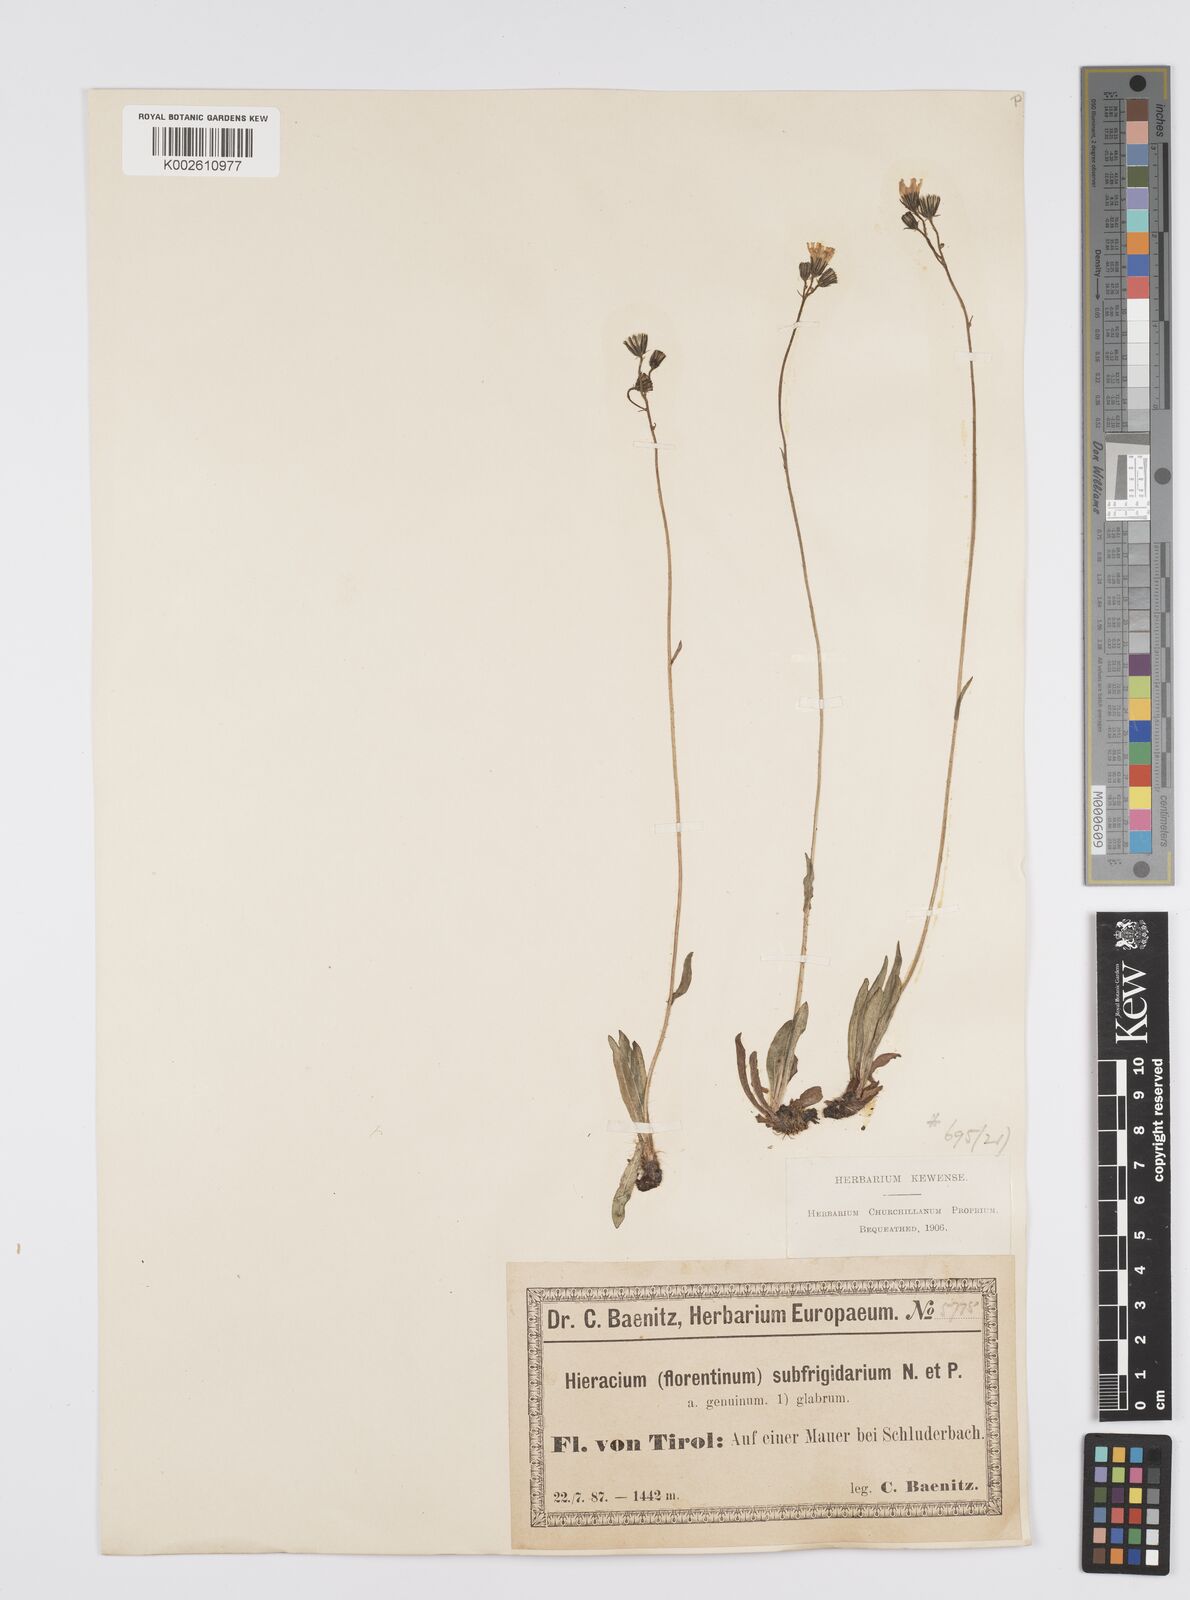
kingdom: Plantae
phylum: Tracheophyta
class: Magnoliopsida
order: Asterales
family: Asteraceae
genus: Pilosella
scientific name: Pilosella piloselloides
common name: Glaucous king-devil
